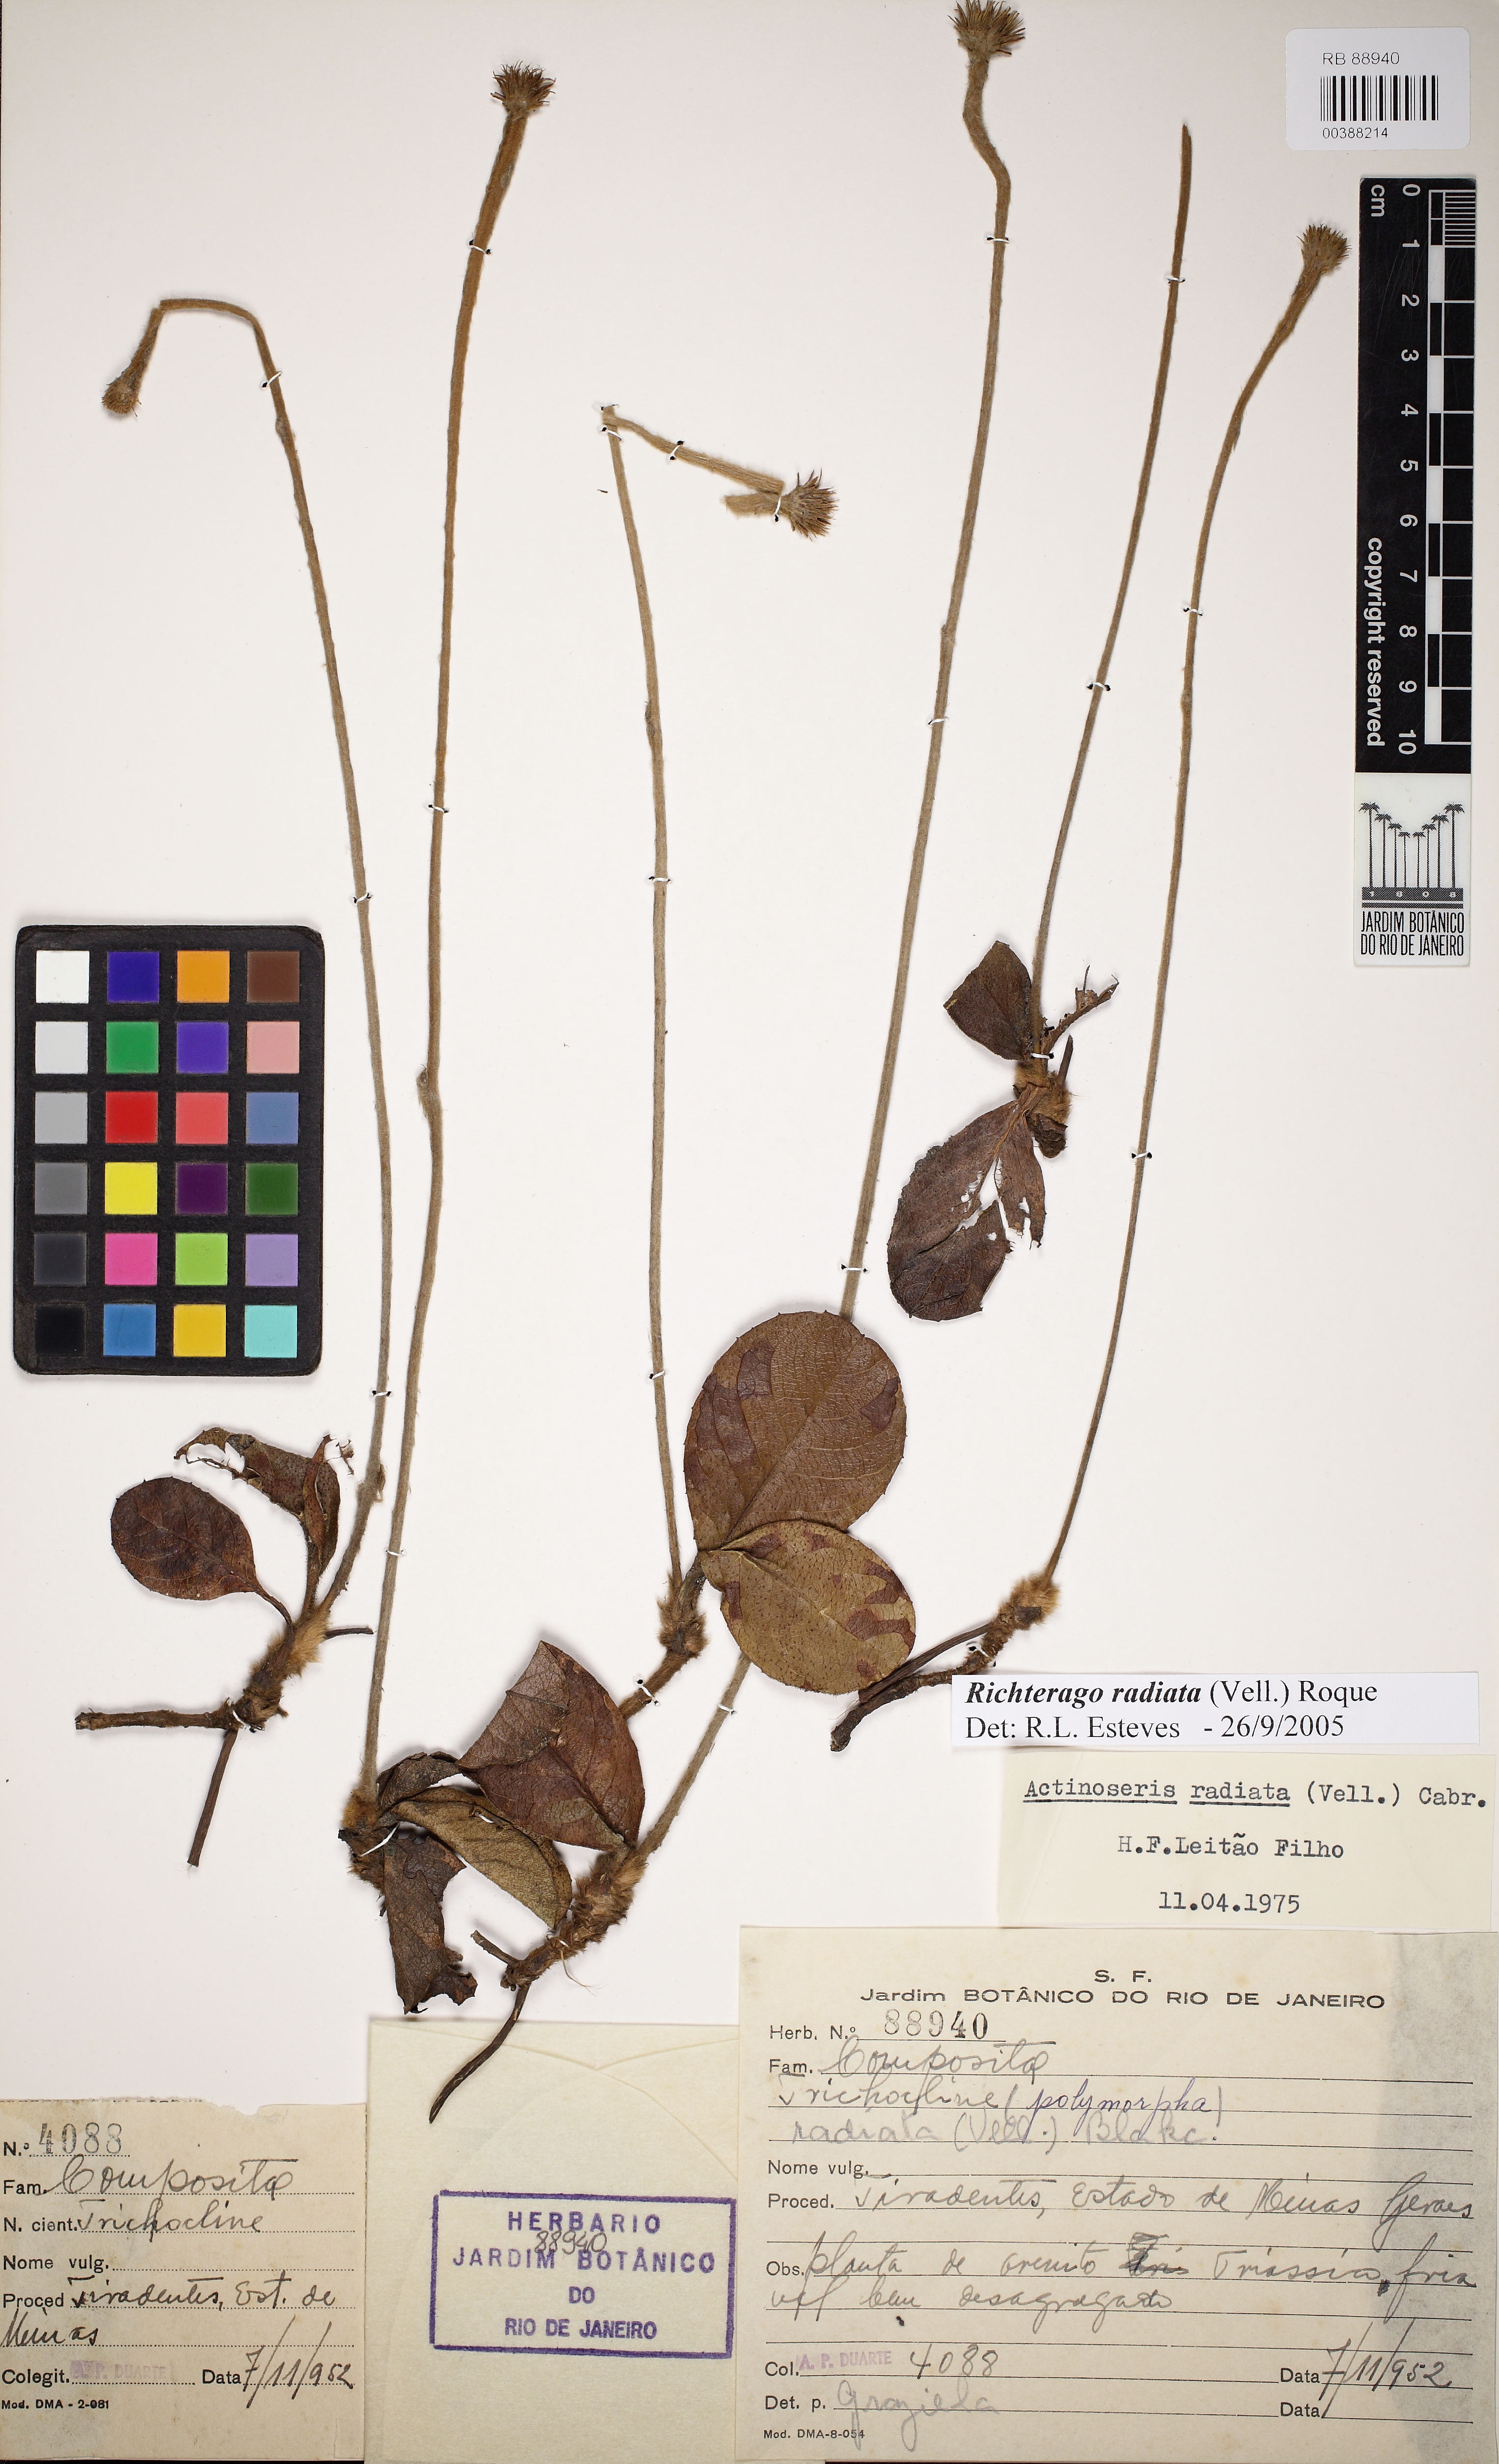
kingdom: Plantae
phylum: Tracheophyta
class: Magnoliopsida
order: Asterales
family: Asteraceae
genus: Richterago
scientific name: Richterago radiata
